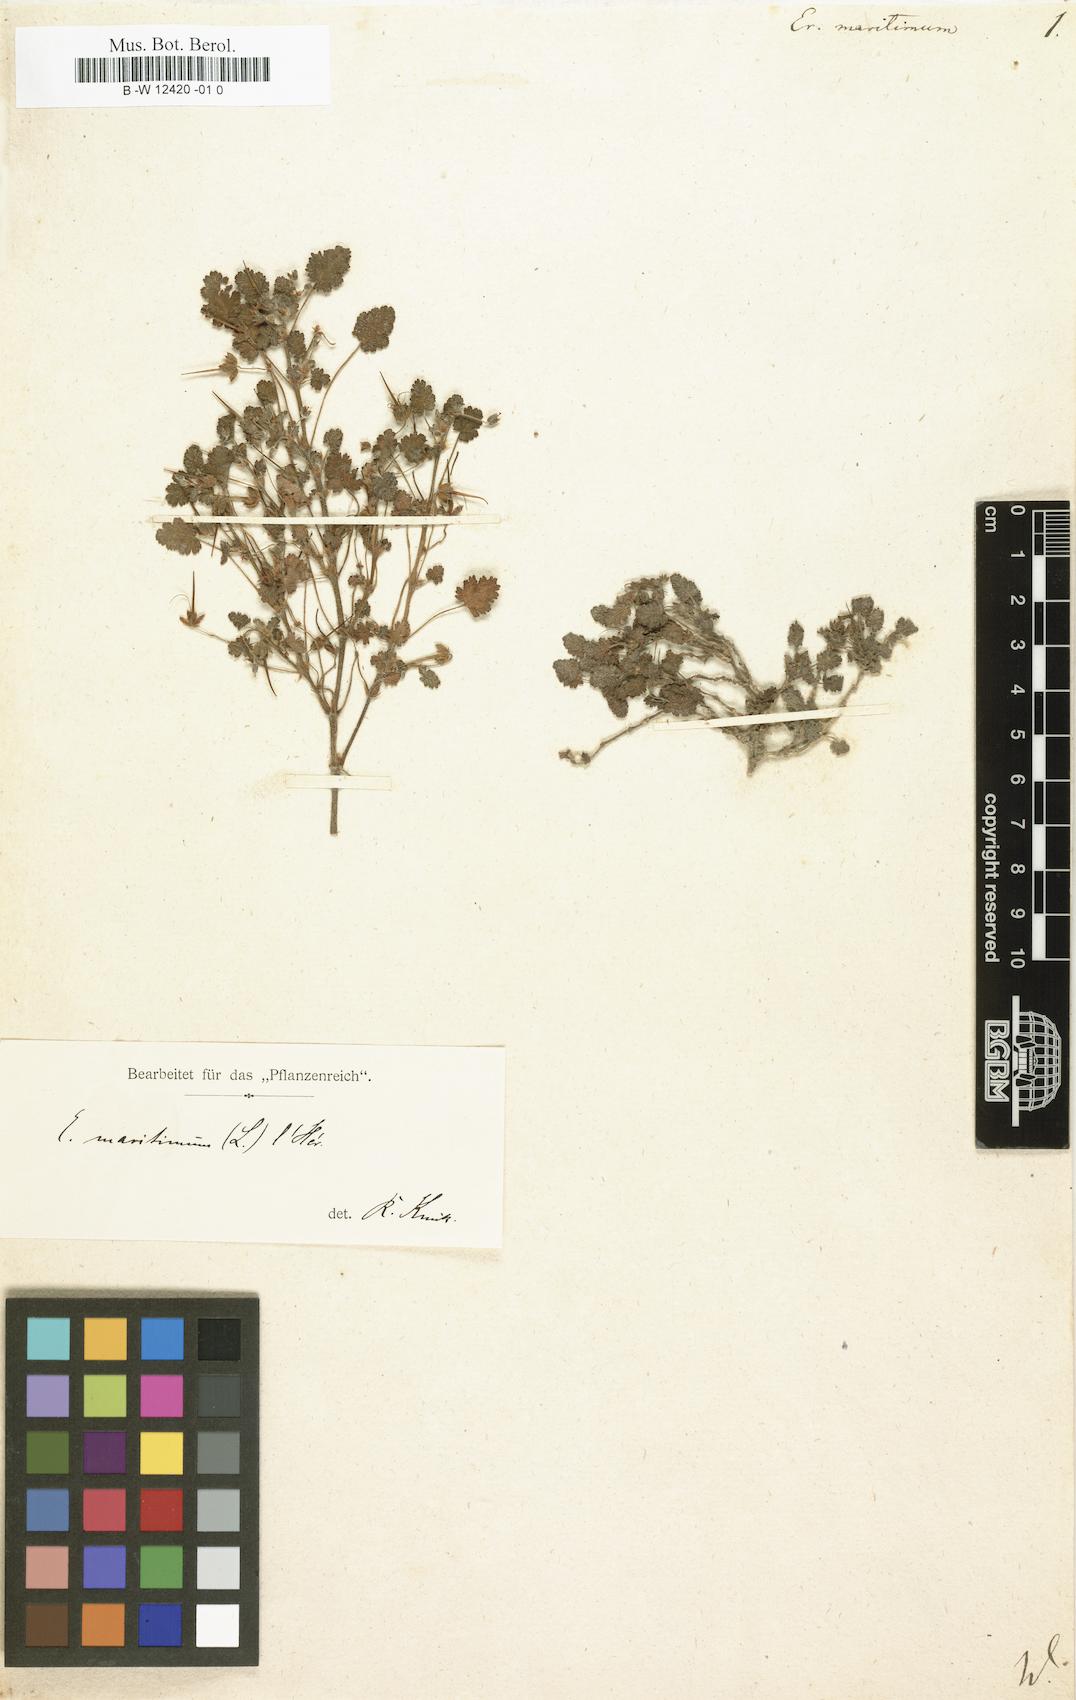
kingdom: Plantae
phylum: Tracheophyta
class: Magnoliopsida
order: Geraniales
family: Geraniaceae
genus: Erodium
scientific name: Erodium maritimum
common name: Sea stork's-bill
